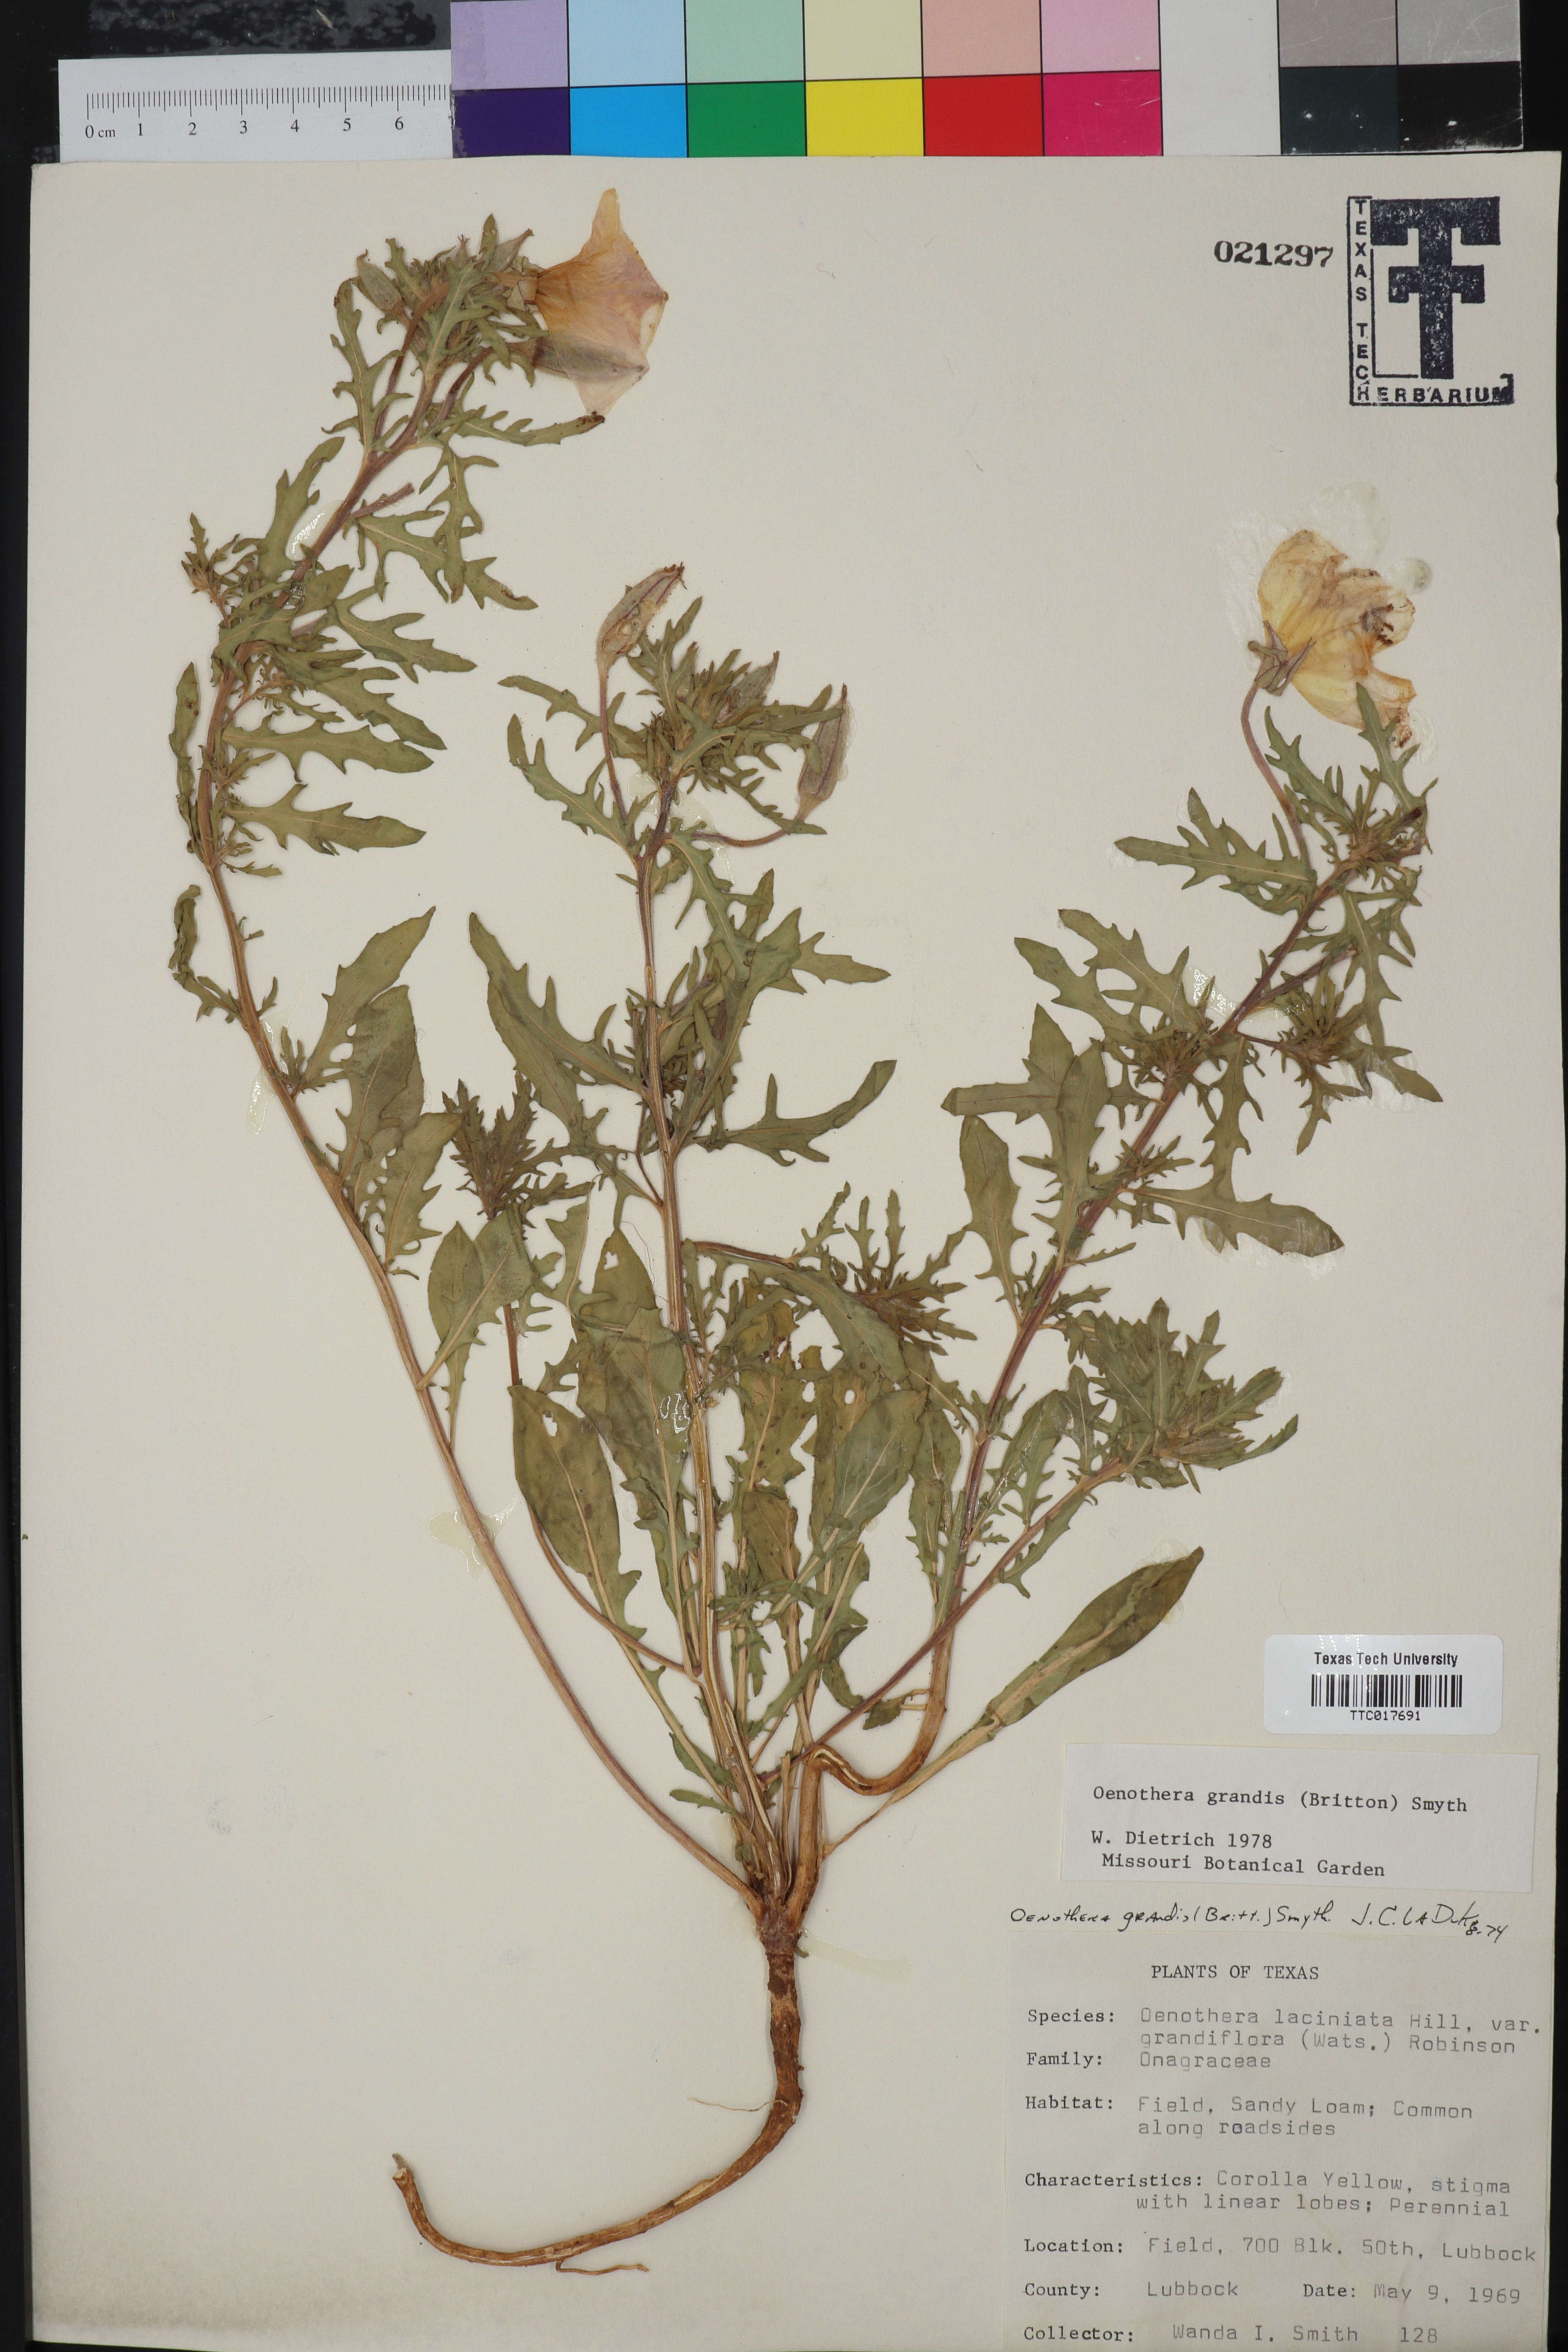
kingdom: Plantae
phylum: Tracheophyta
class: Magnoliopsida
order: Myrtales
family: Onagraceae
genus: Oenothera
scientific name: Oenothera grandis
